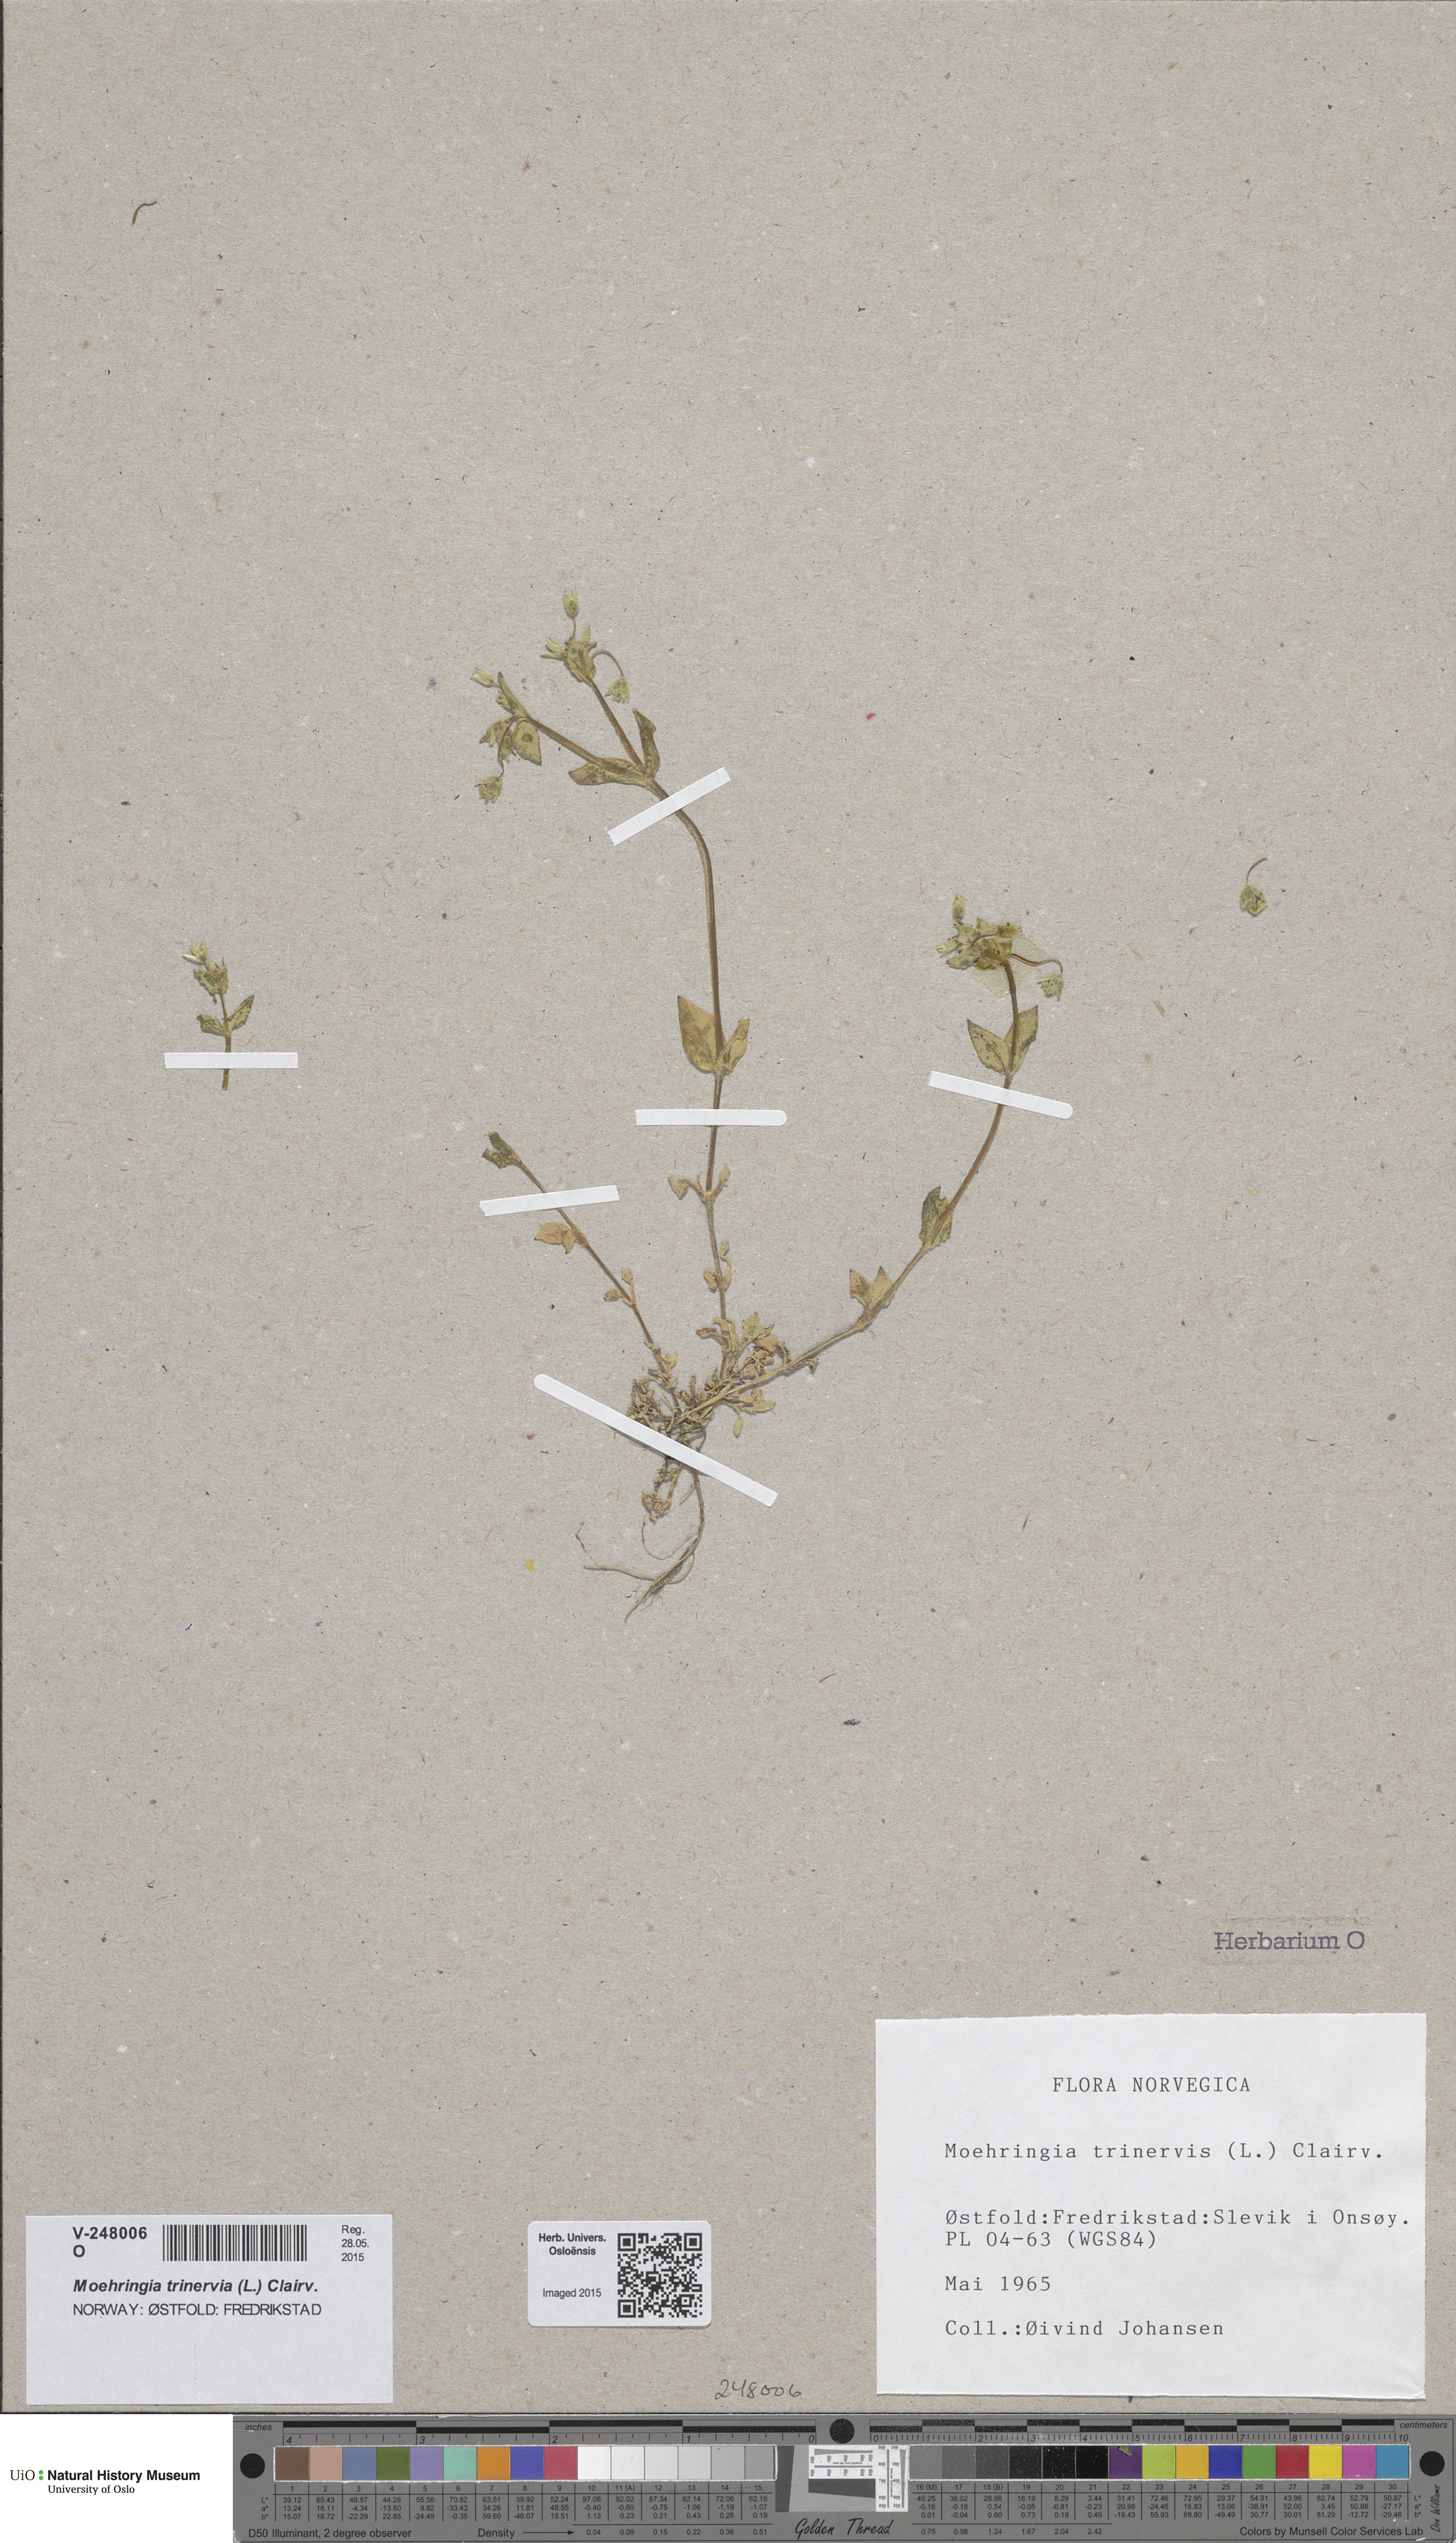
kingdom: Plantae
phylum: Tracheophyta
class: Magnoliopsida
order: Caryophyllales
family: Caryophyllaceae
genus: Moehringia
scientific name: Moehringia trinervia
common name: Three-nerved sandwort
